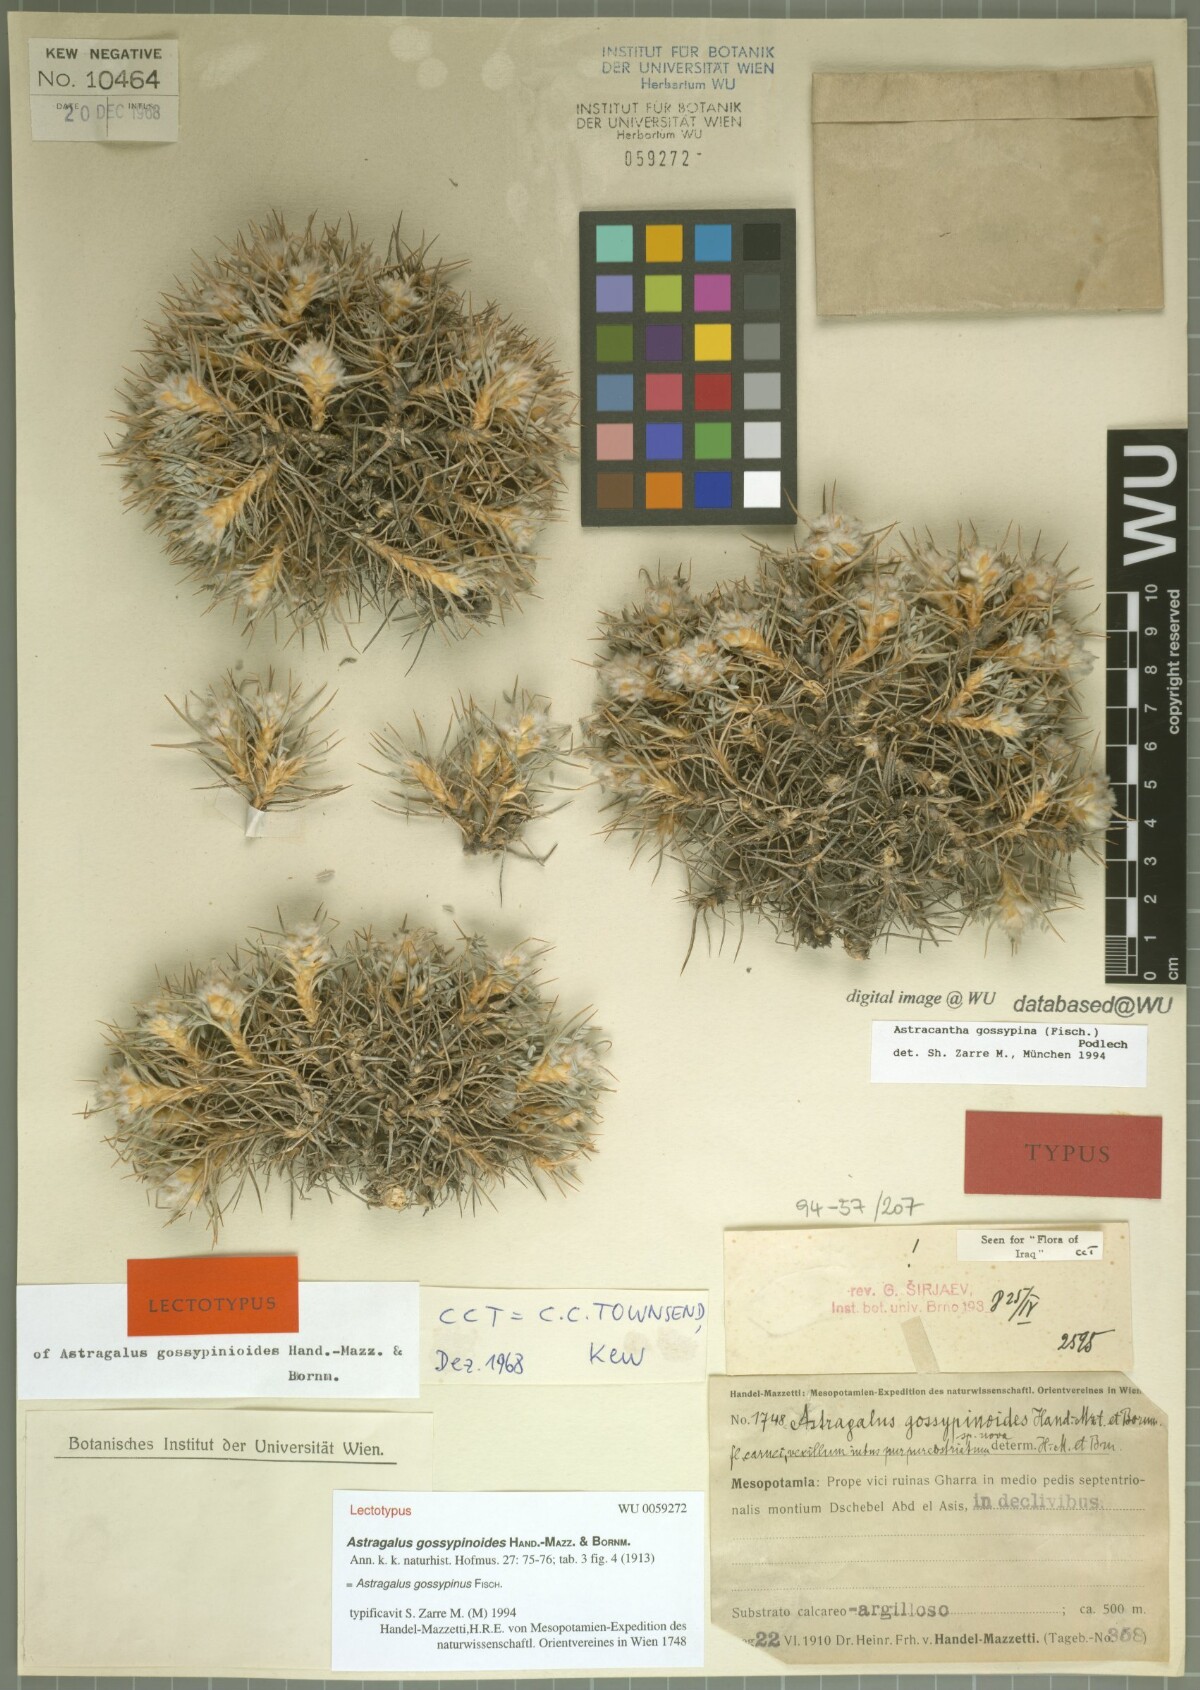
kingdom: Plantae
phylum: Tracheophyta
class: Magnoliopsida
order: Fabales
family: Fabaceae
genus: Astragalus
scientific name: Astragalus gossypinus
